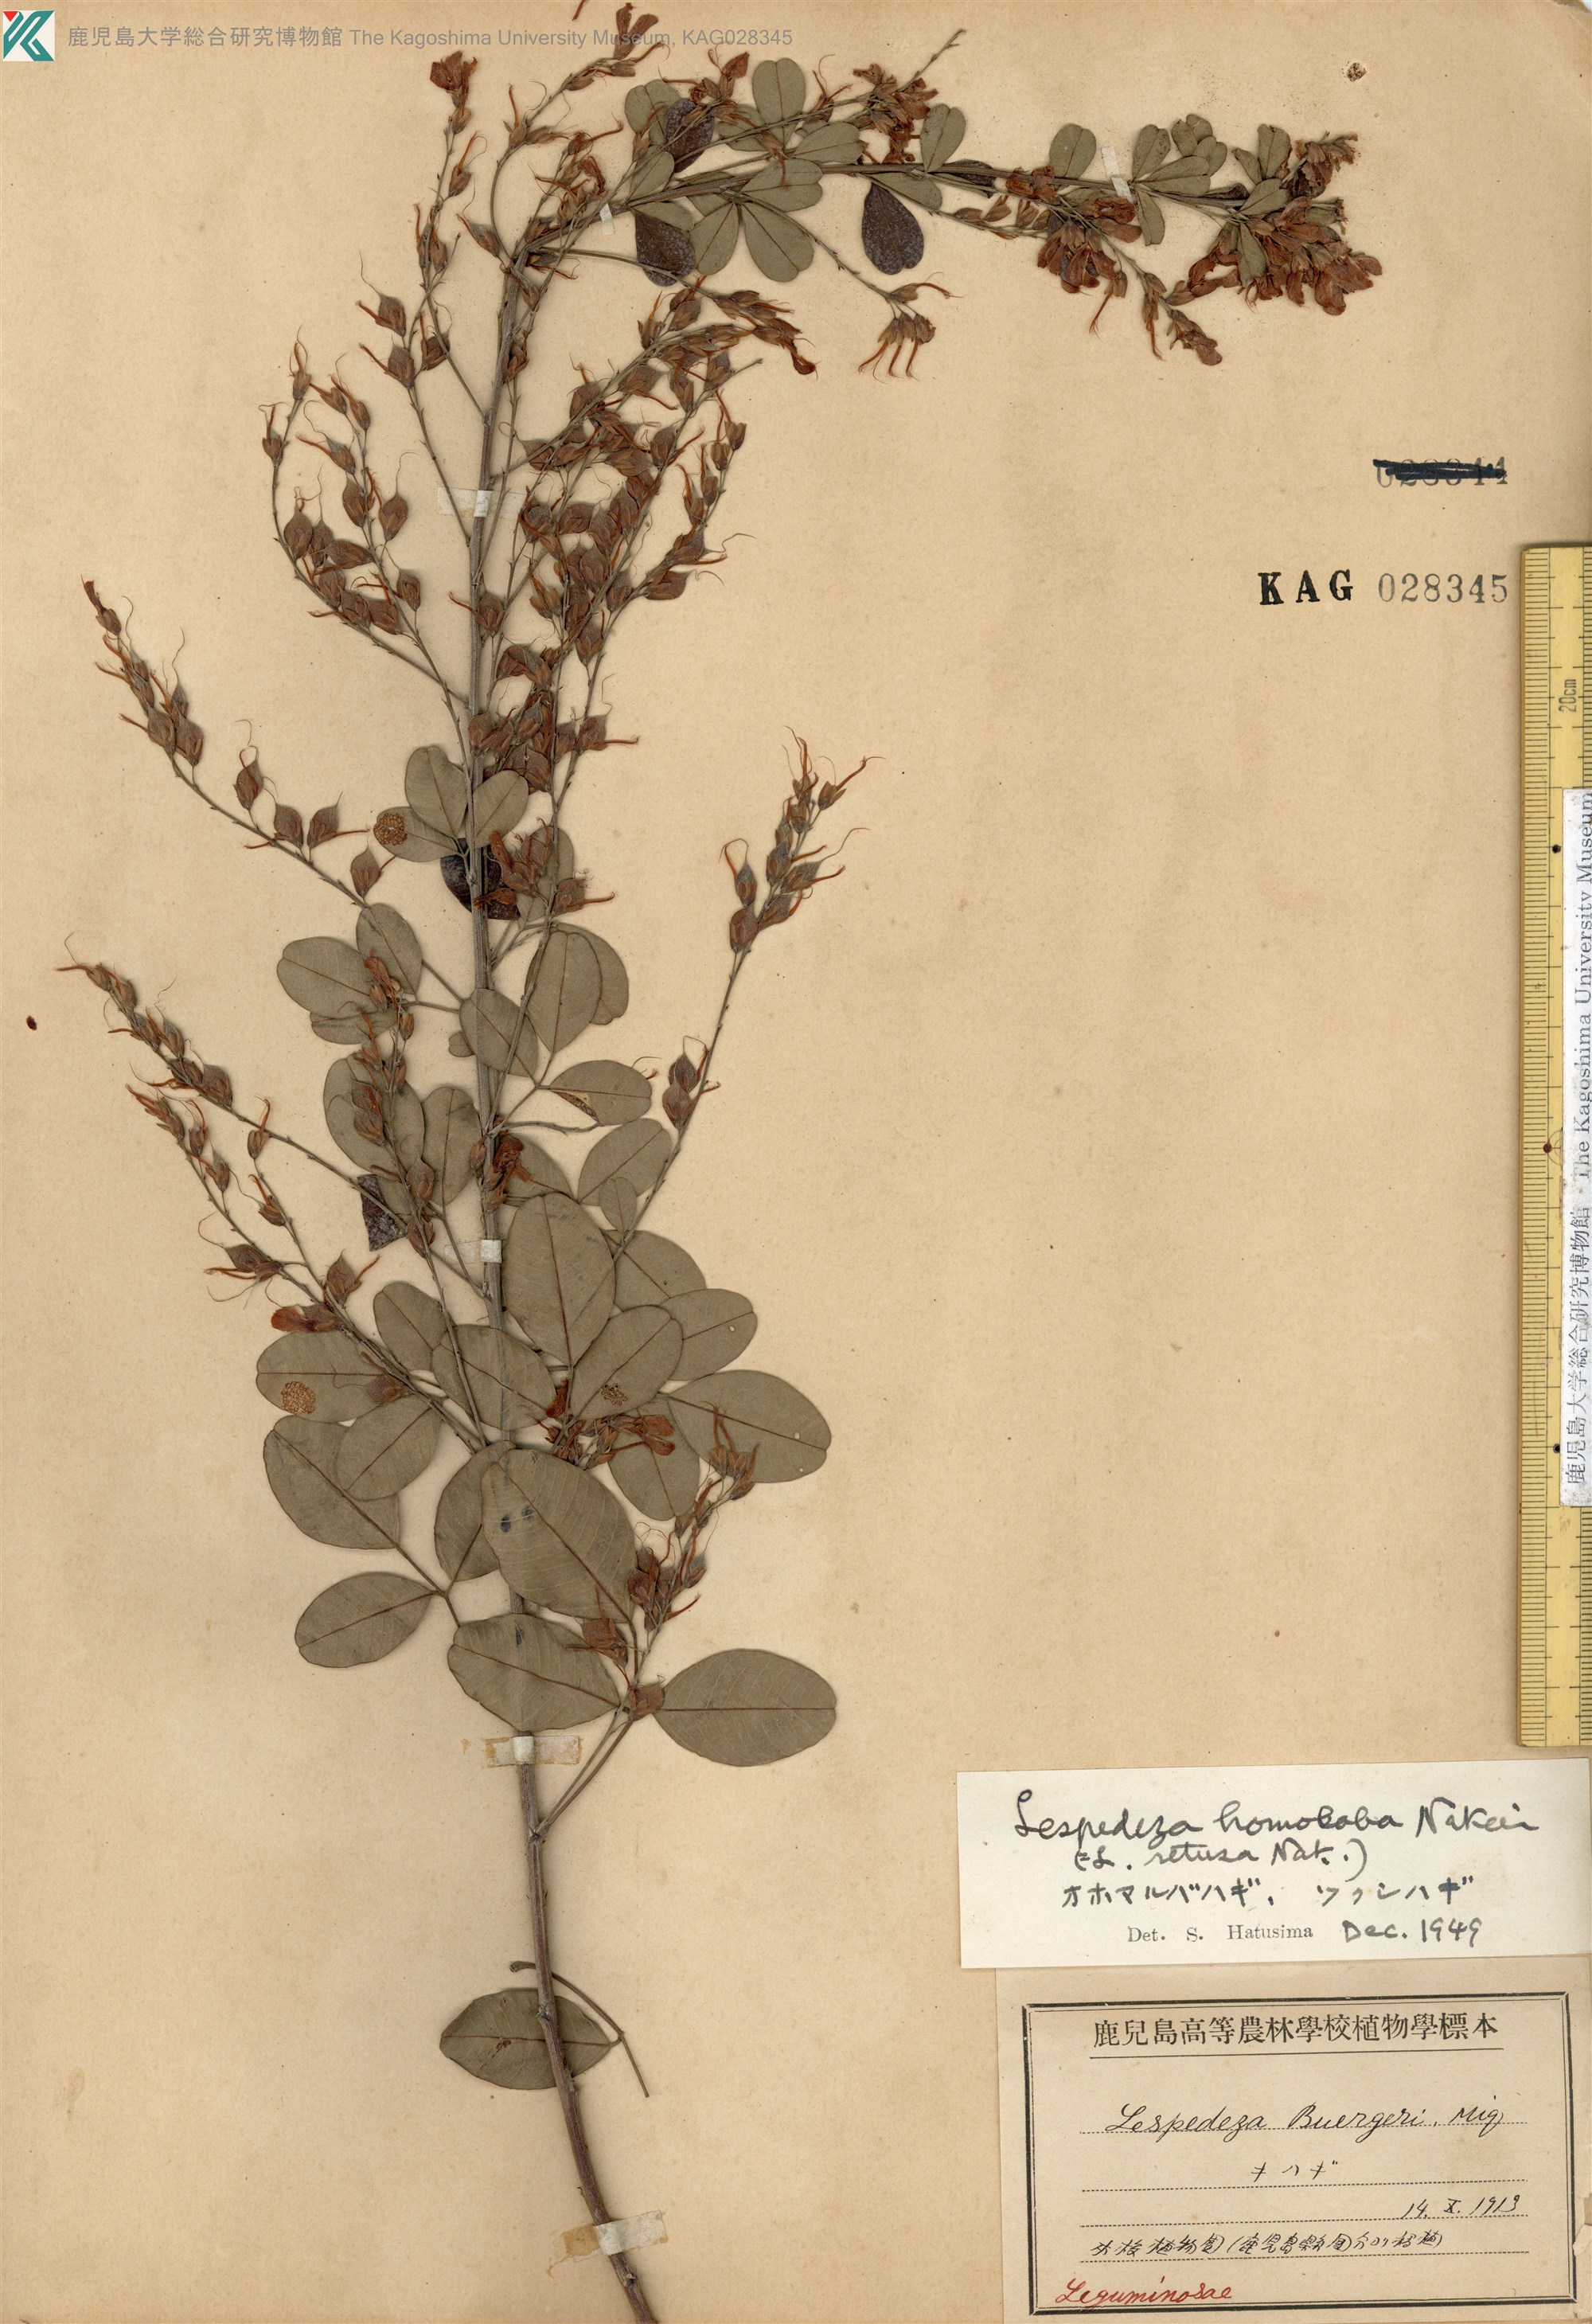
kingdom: Plantae
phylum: Tracheophyta
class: Magnoliopsida
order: Fabales
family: Fabaceae
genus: Lespedeza
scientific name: Lespedeza homoloba
